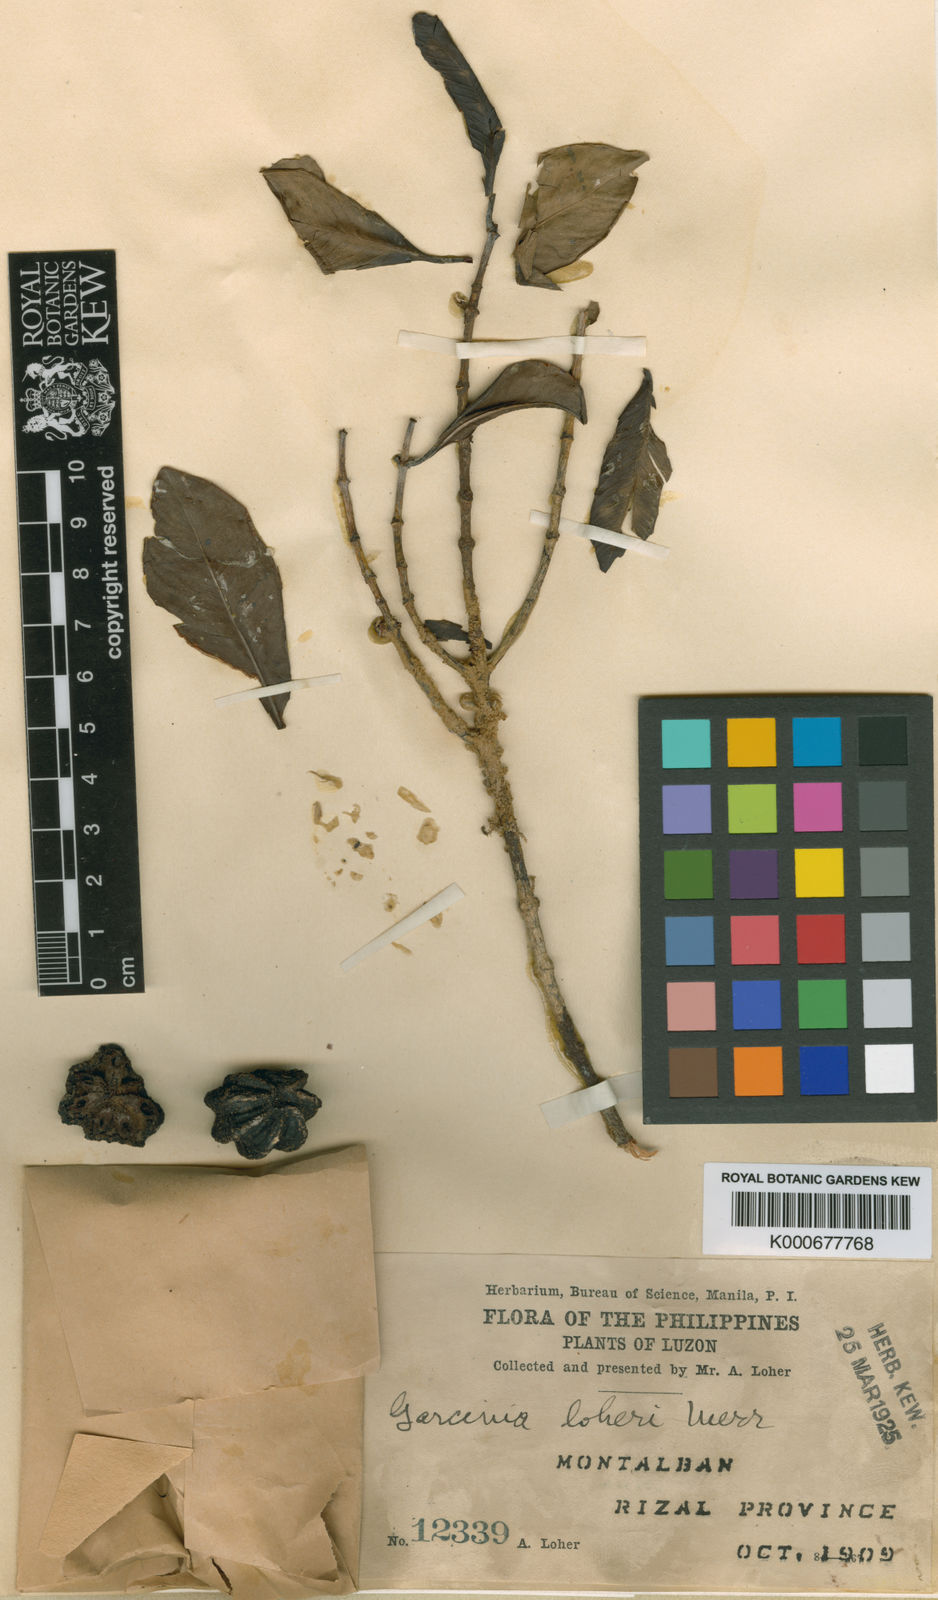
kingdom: Plantae
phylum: Tracheophyta
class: Magnoliopsida
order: Malpighiales
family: Clusiaceae
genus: Garcinia
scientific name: Garcinia loheri
